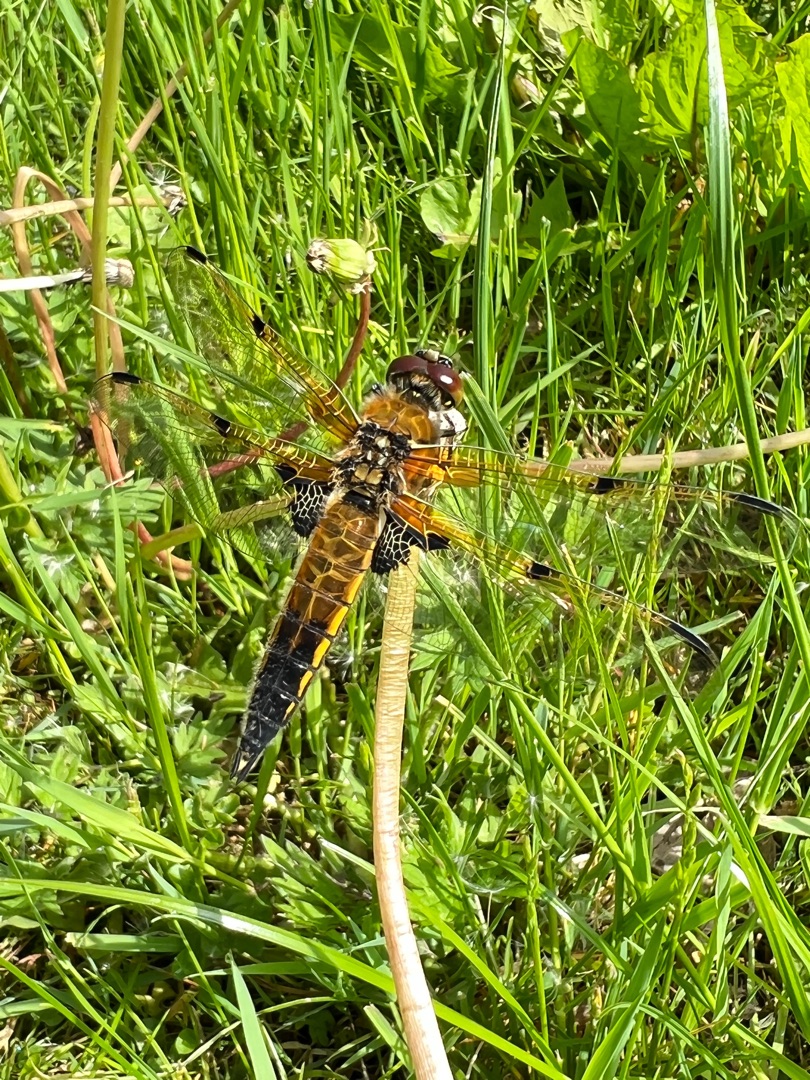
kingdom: Animalia
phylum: Arthropoda
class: Insecta
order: Odonata
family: Libellulidae
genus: Libellula
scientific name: Libellula quadrimaculata
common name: Fireplettet libel
